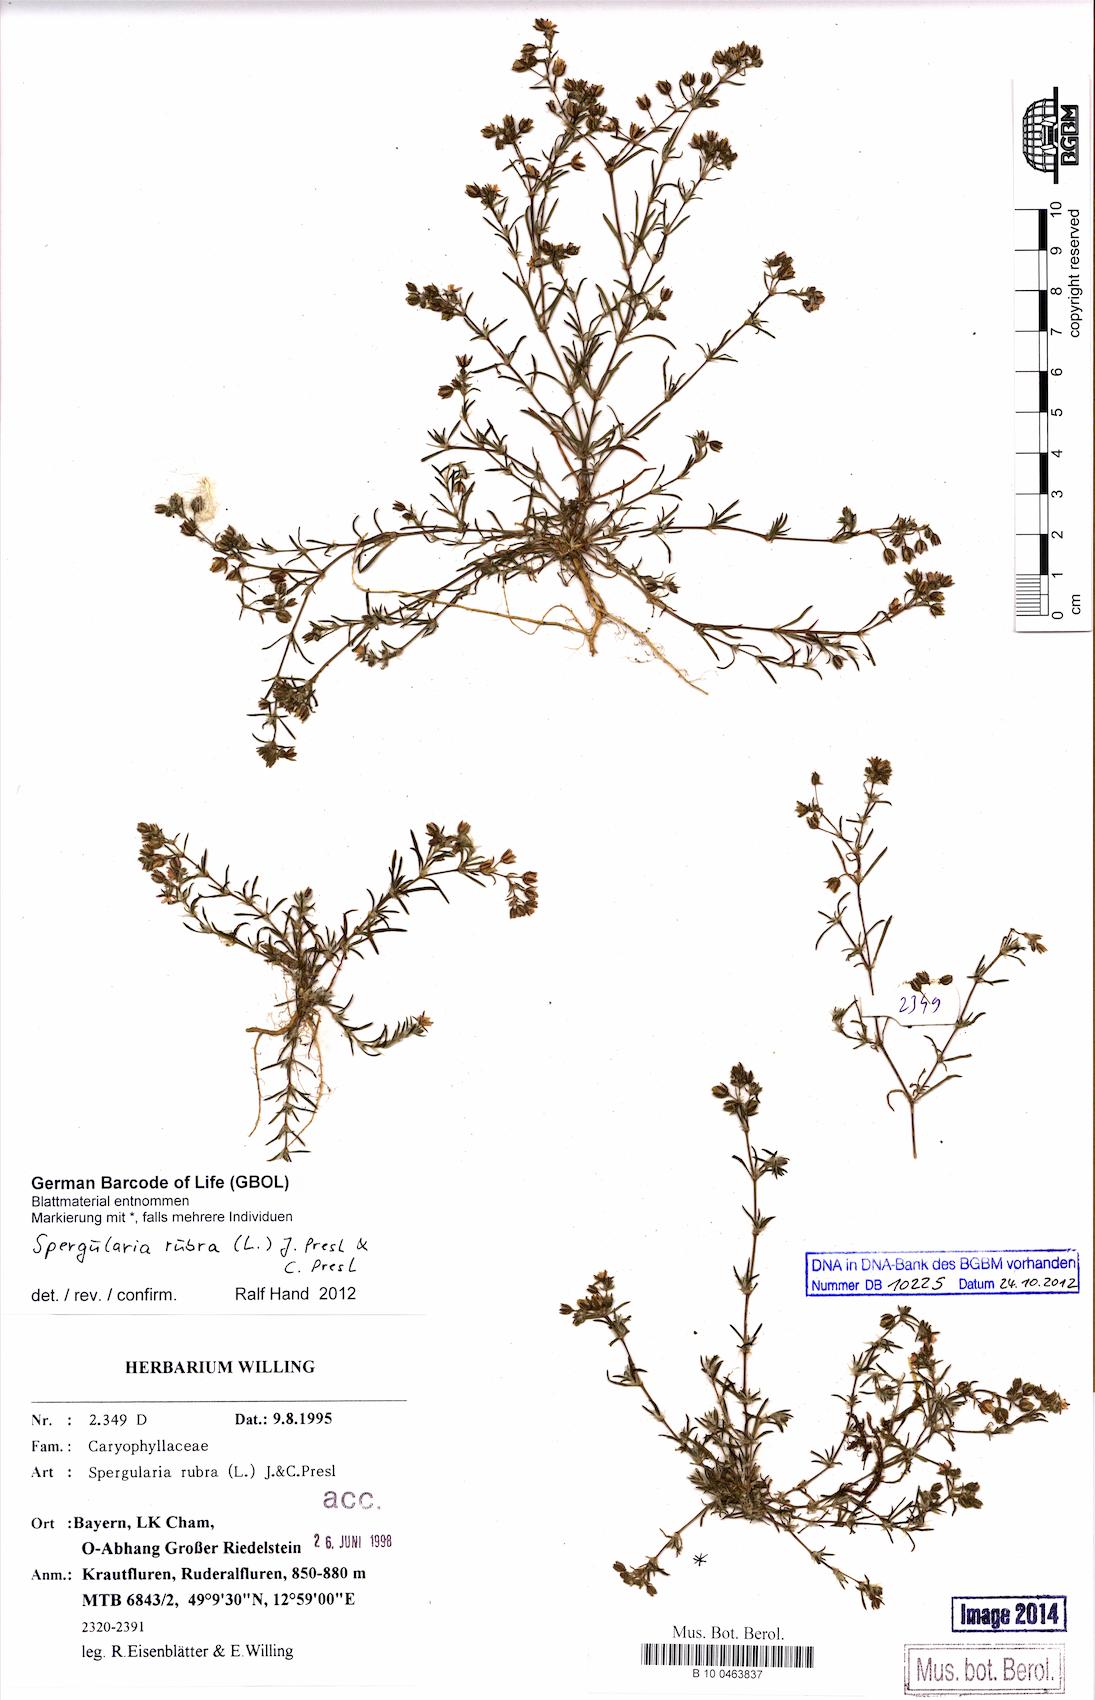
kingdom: Plantae
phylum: Tracheophyta
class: Magnoliopsida
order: Caryophyllales
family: Caryophyllaceae
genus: Spergularia
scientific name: Spergularia rubra
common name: Red sand-spurrey
